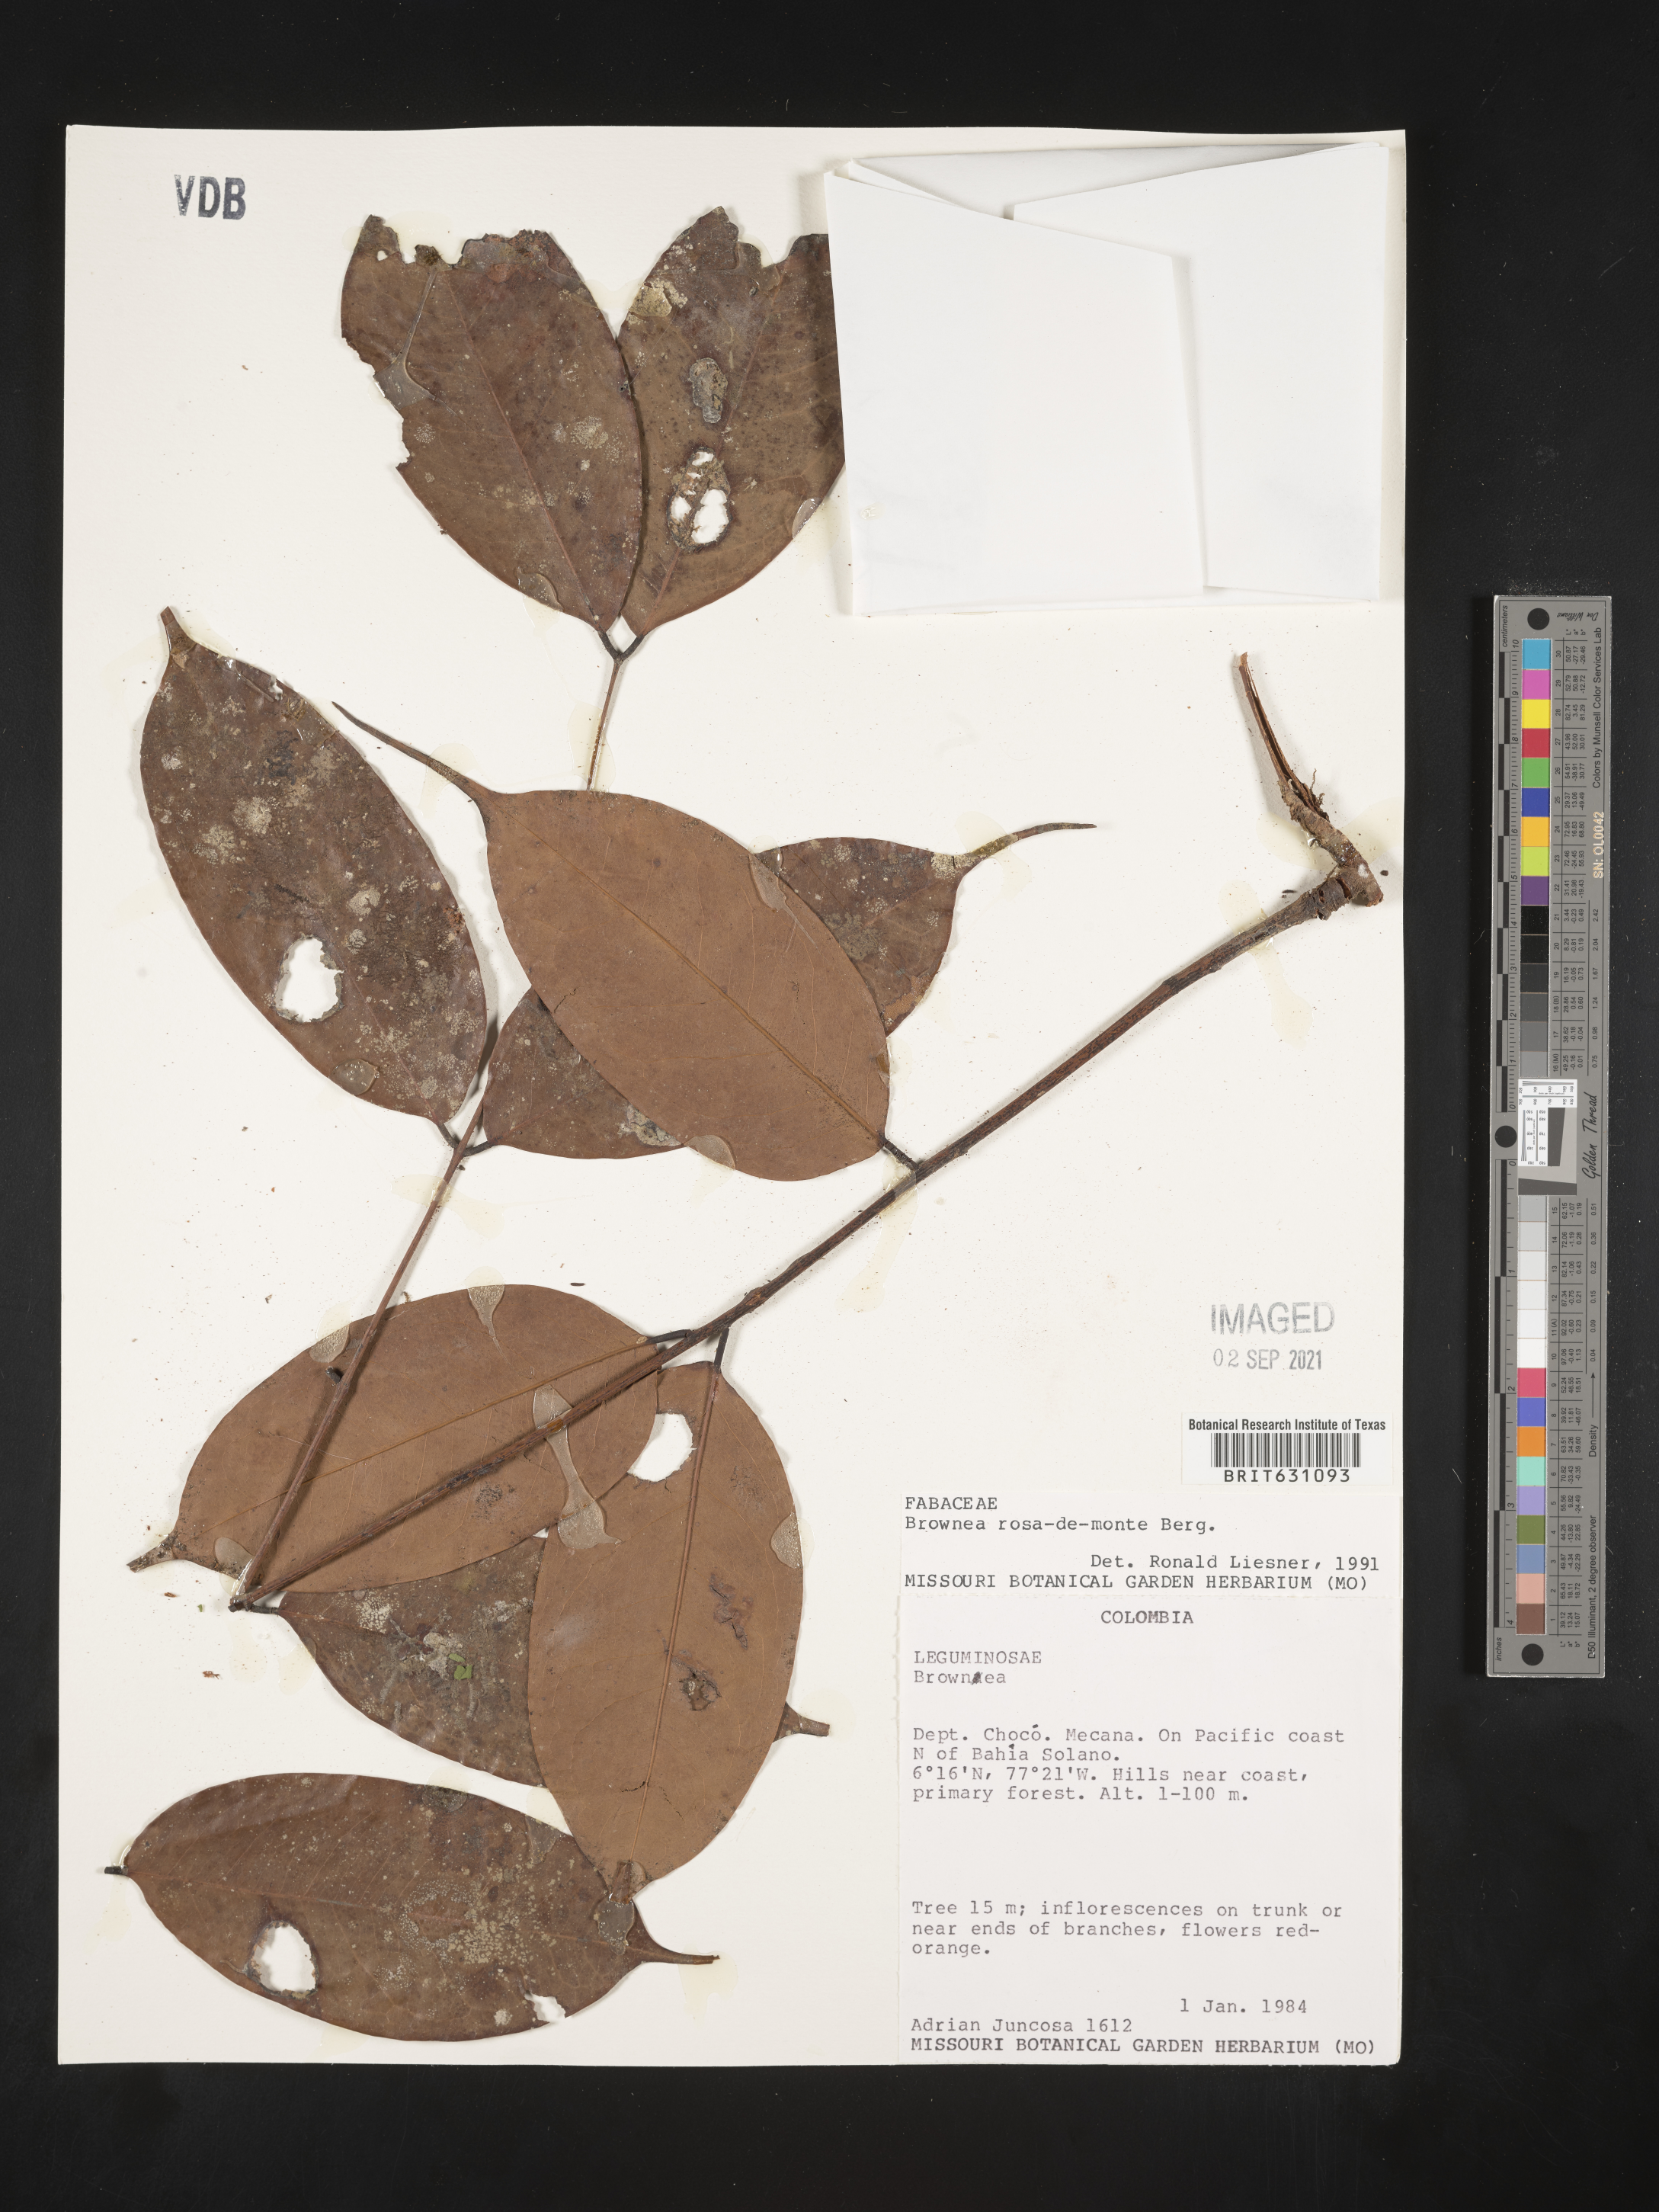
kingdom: Plantae
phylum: Tracheophyta
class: Magnoliopsida
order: Fabales
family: Fabaceae
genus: Brownea
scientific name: Brownea
